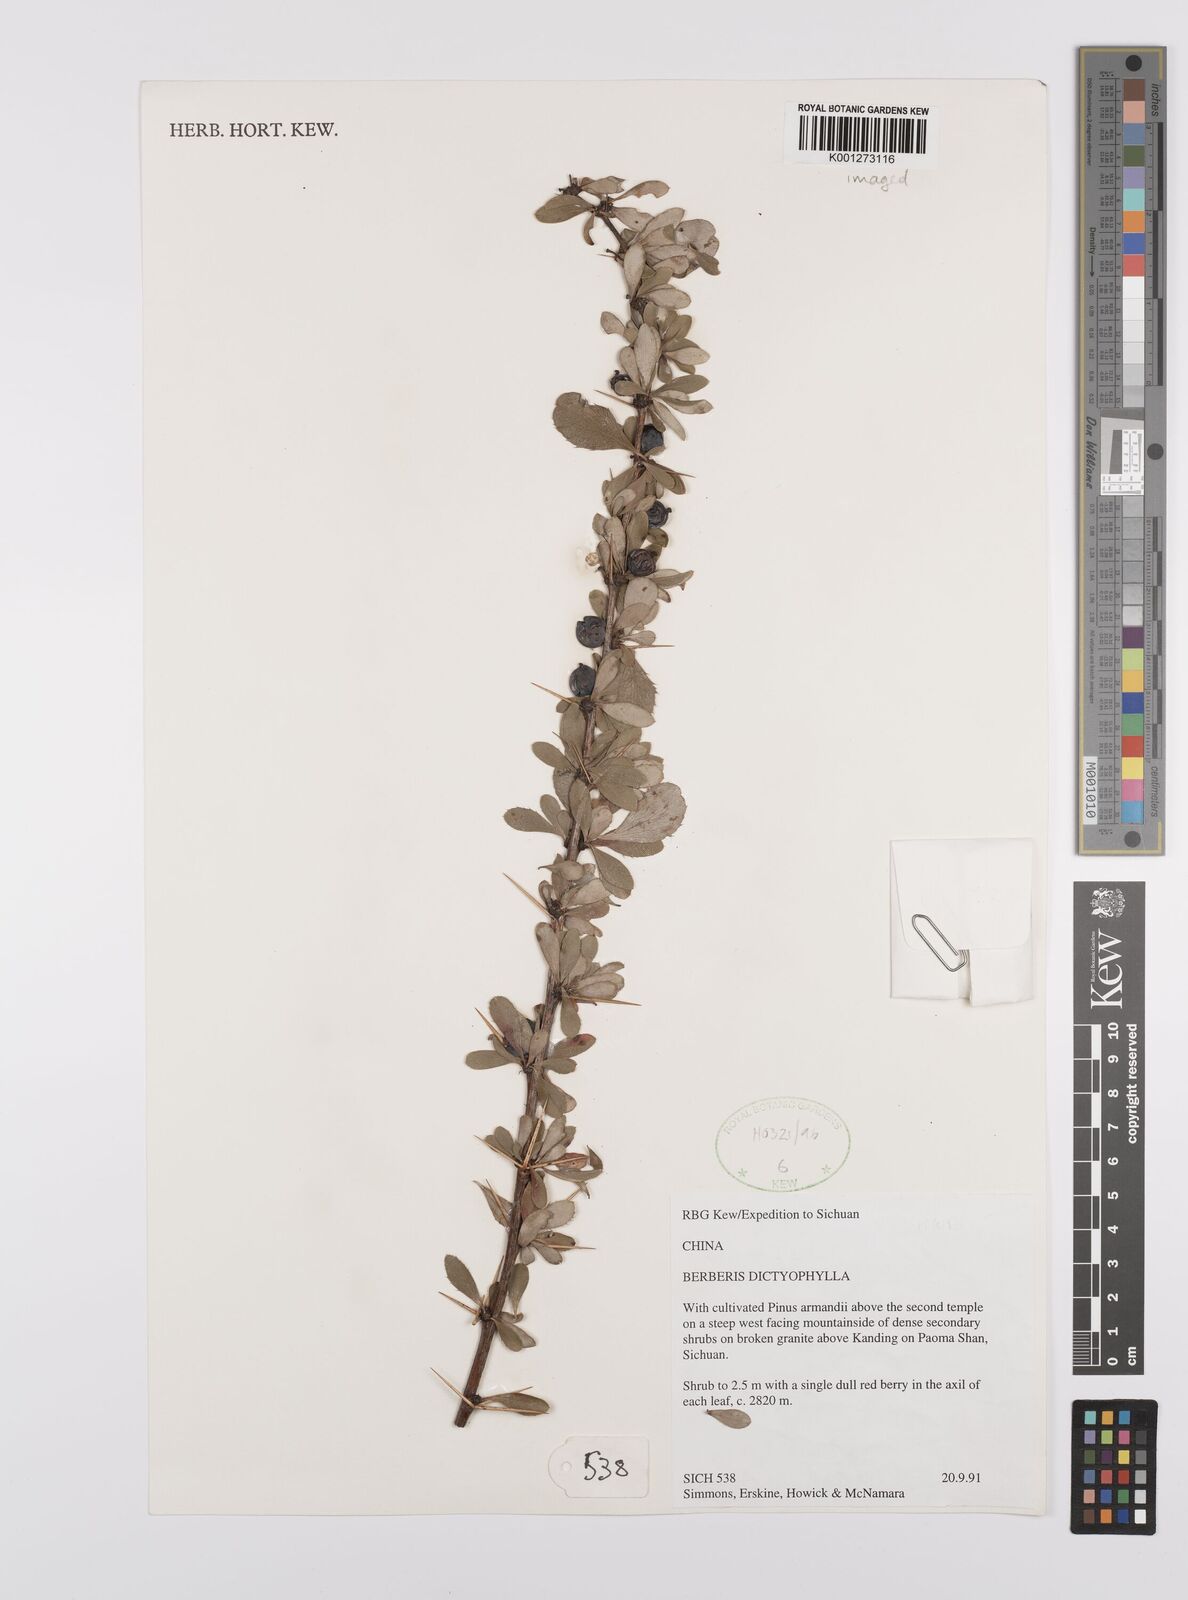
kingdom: Plantae
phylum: Tracheophyta
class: Magnoliopsida
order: Ranunculales
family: Berberidaceae
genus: Berberis
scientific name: Berberis dictyophylla
